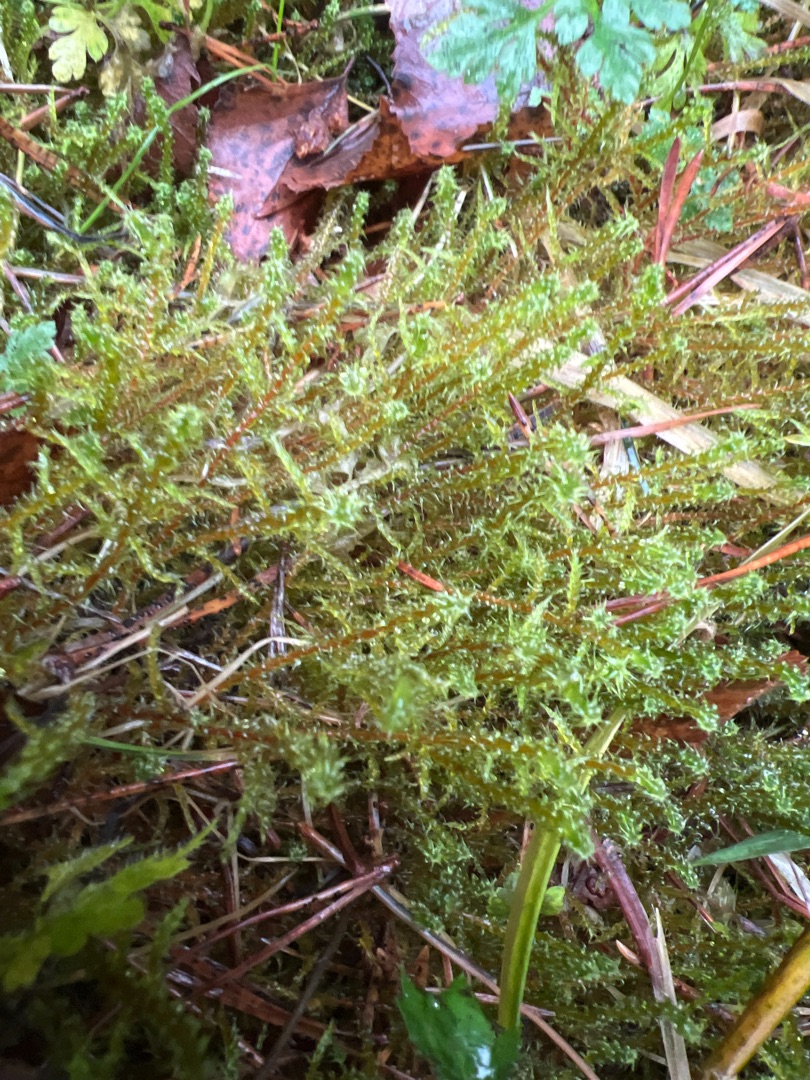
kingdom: Plantae
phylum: Bryophyta
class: Bryopsida
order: Hypnales
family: Hylocomiaceae
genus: Rhytidiadelphus
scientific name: Rhytidiadelphus squarrosus
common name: Plæne-kransemos
